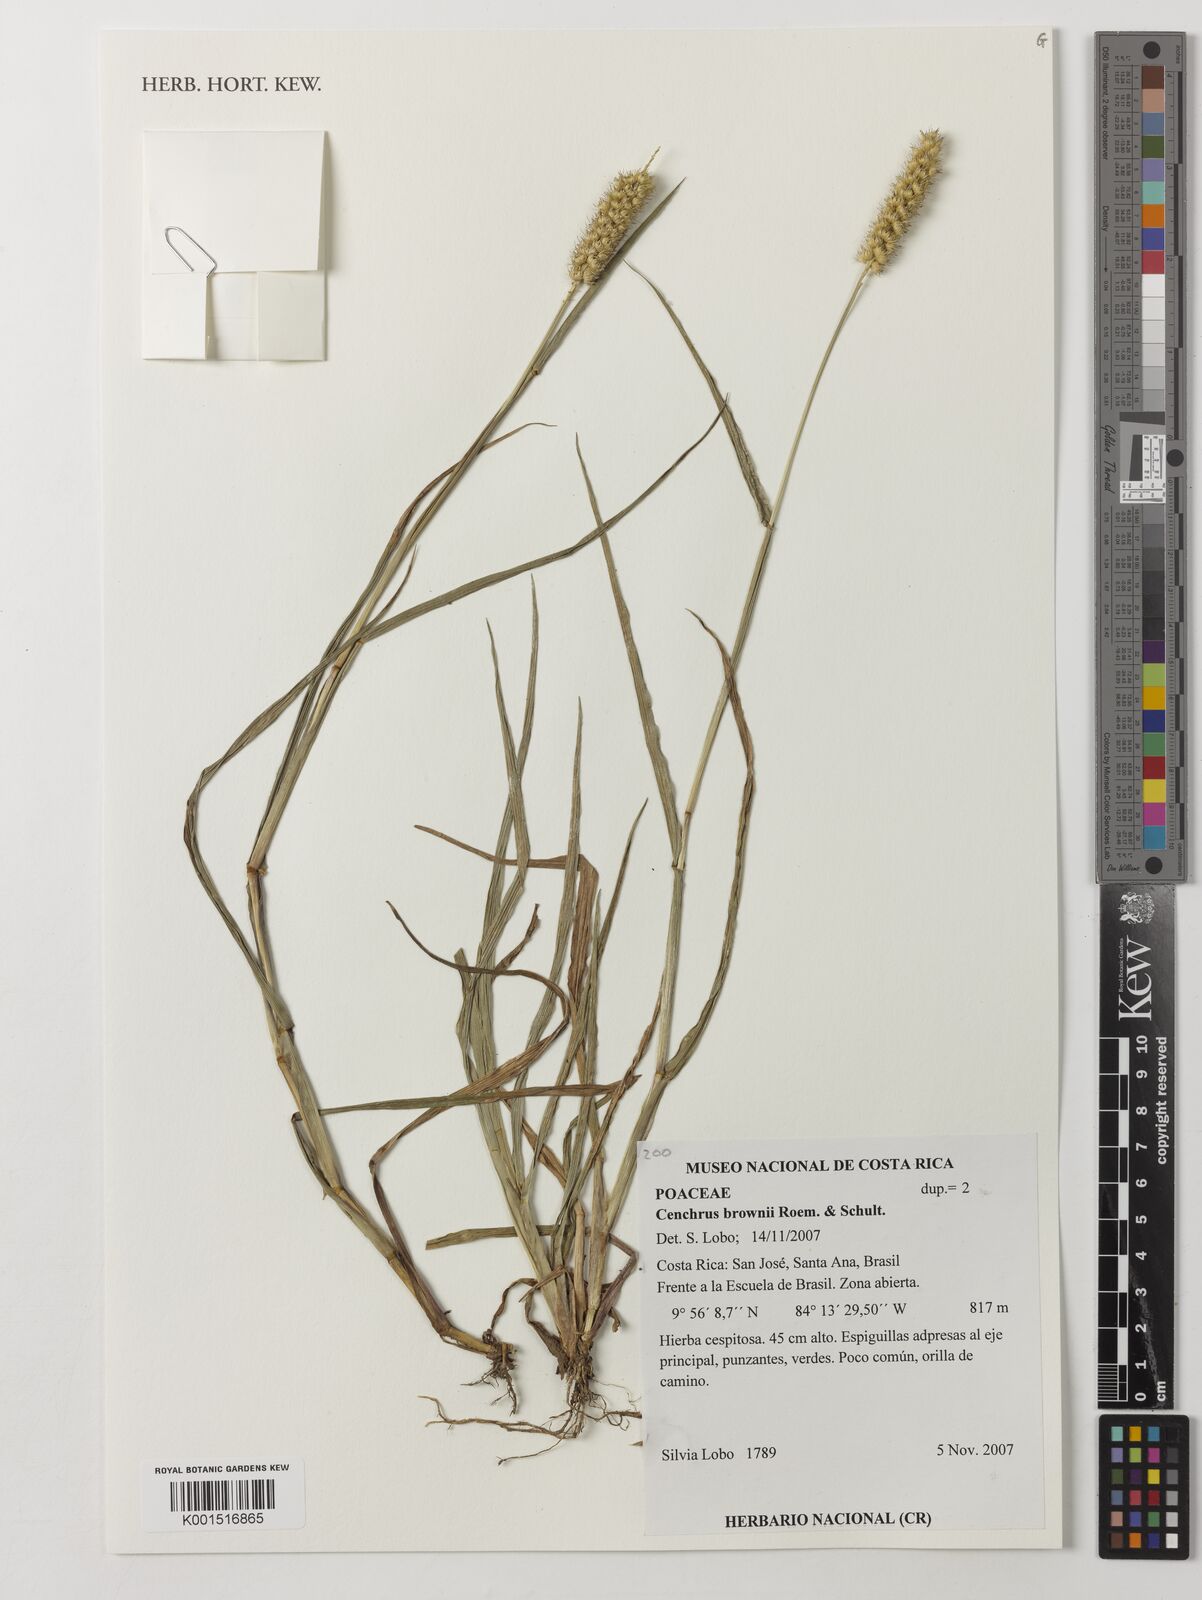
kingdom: Plantae
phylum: Tracheophyta
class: Liliopsida
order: Poales
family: Poaceae
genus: Cenchrus
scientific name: Cenchrus brownii
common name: Slim-bristle sandbur
